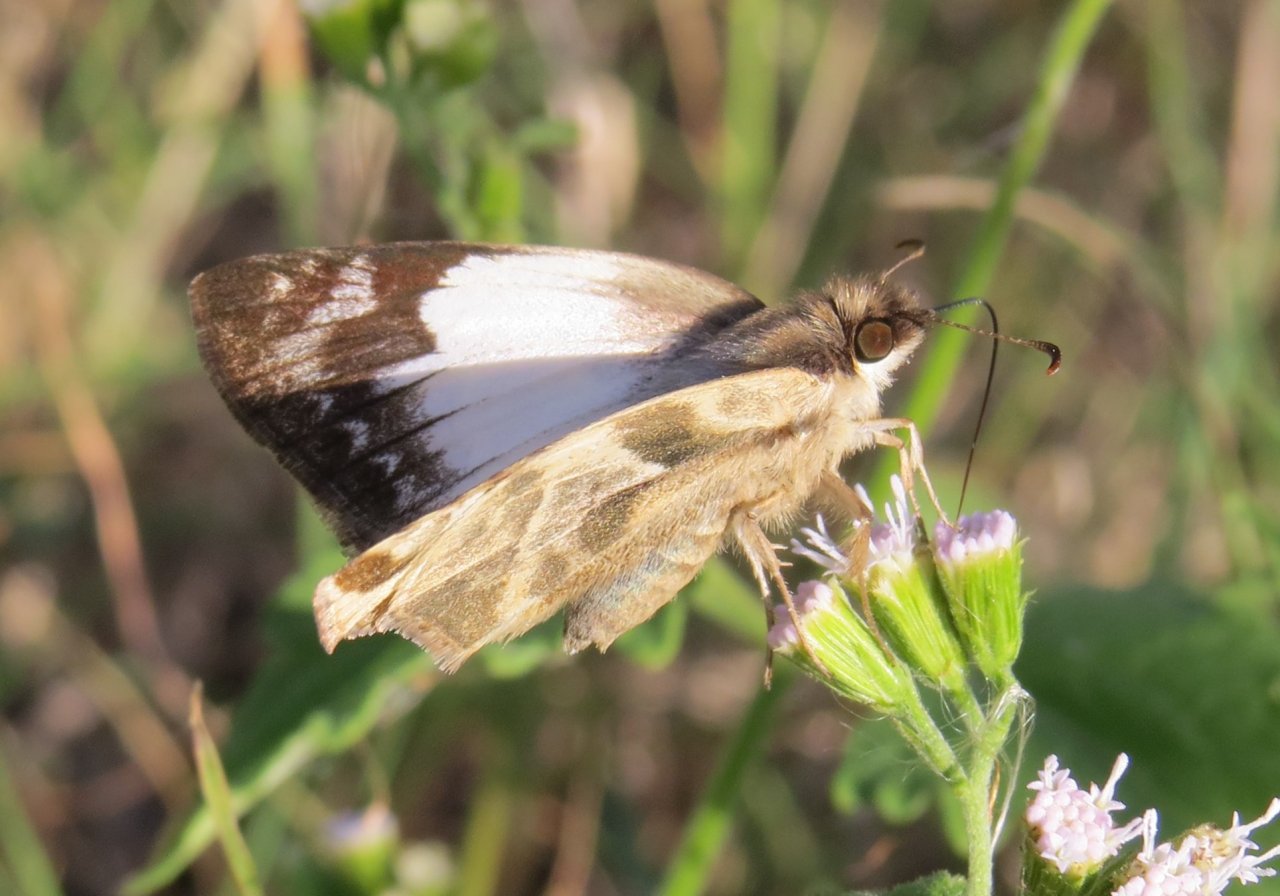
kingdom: Animalia
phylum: Arthropoda
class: Insecta
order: Lepidoptera
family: Hesperiidae
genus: Heliopetes
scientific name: Heliopetes laviana
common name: Laviana White-Skipper
